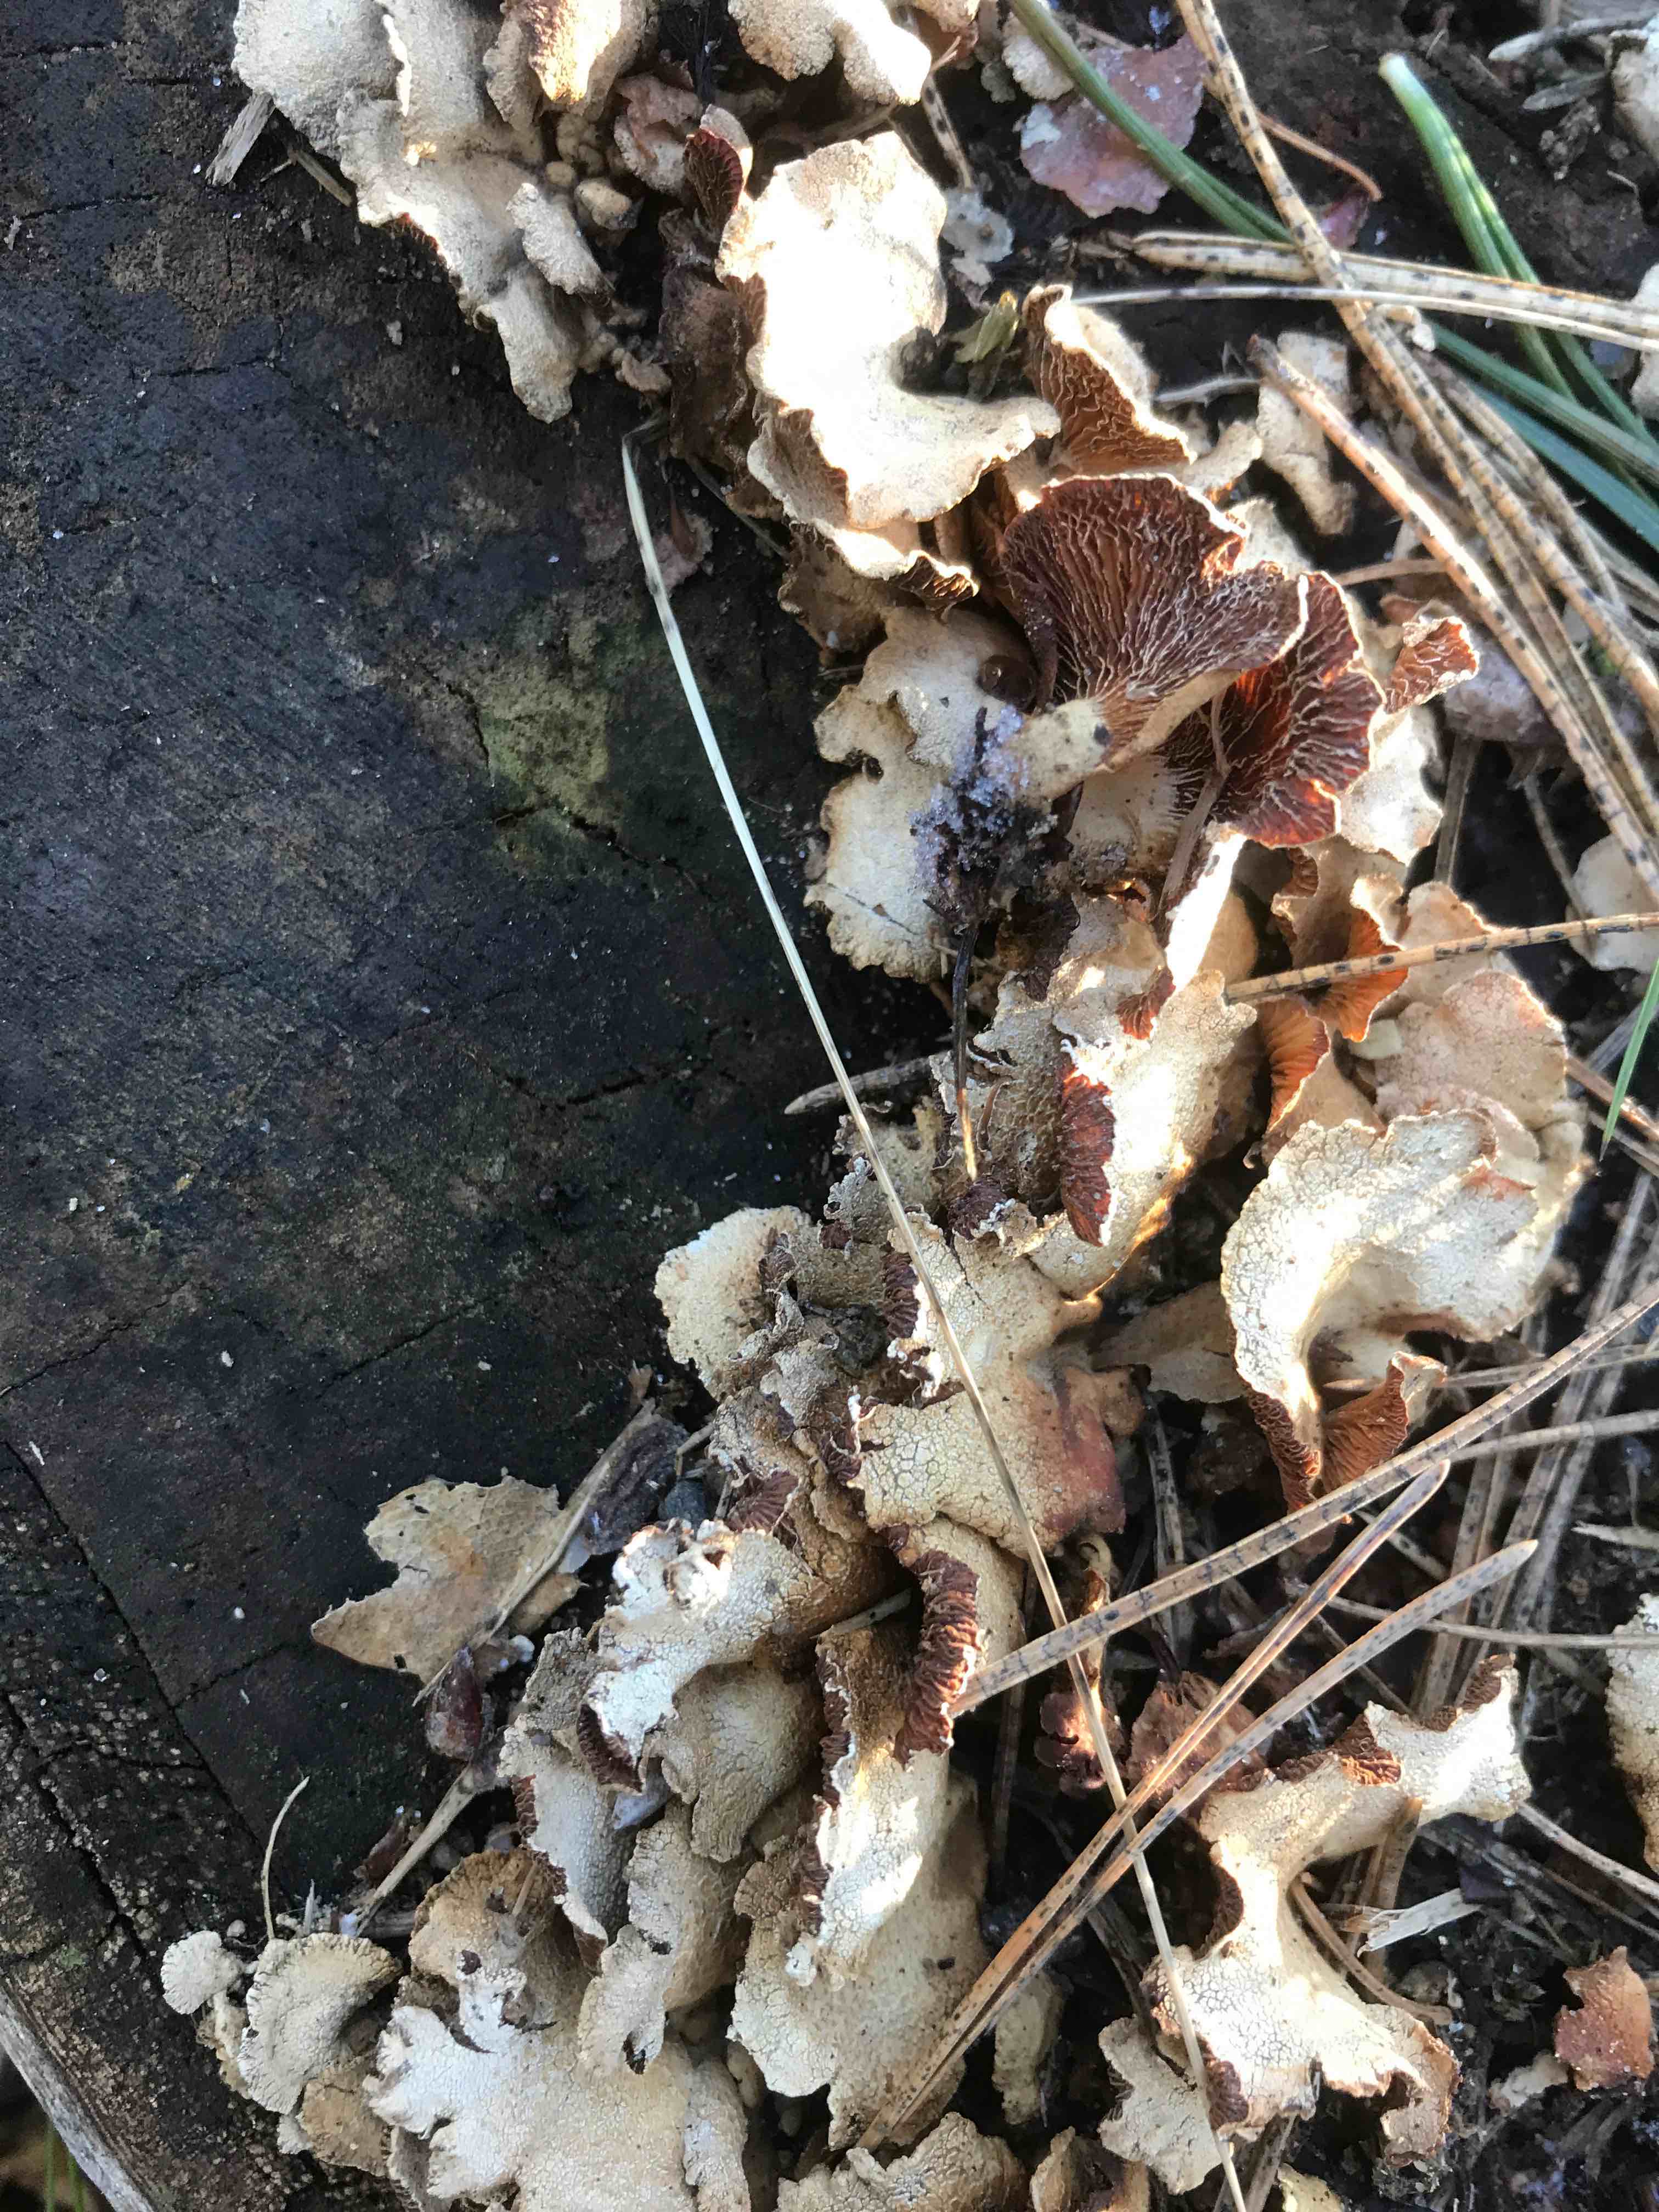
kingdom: Fungi
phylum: Basidiomycota
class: Agaricomycetes
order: Agaricales
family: Mycenaceae
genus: Panellus
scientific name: Panellus stipticus
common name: kliddet epaulethat
